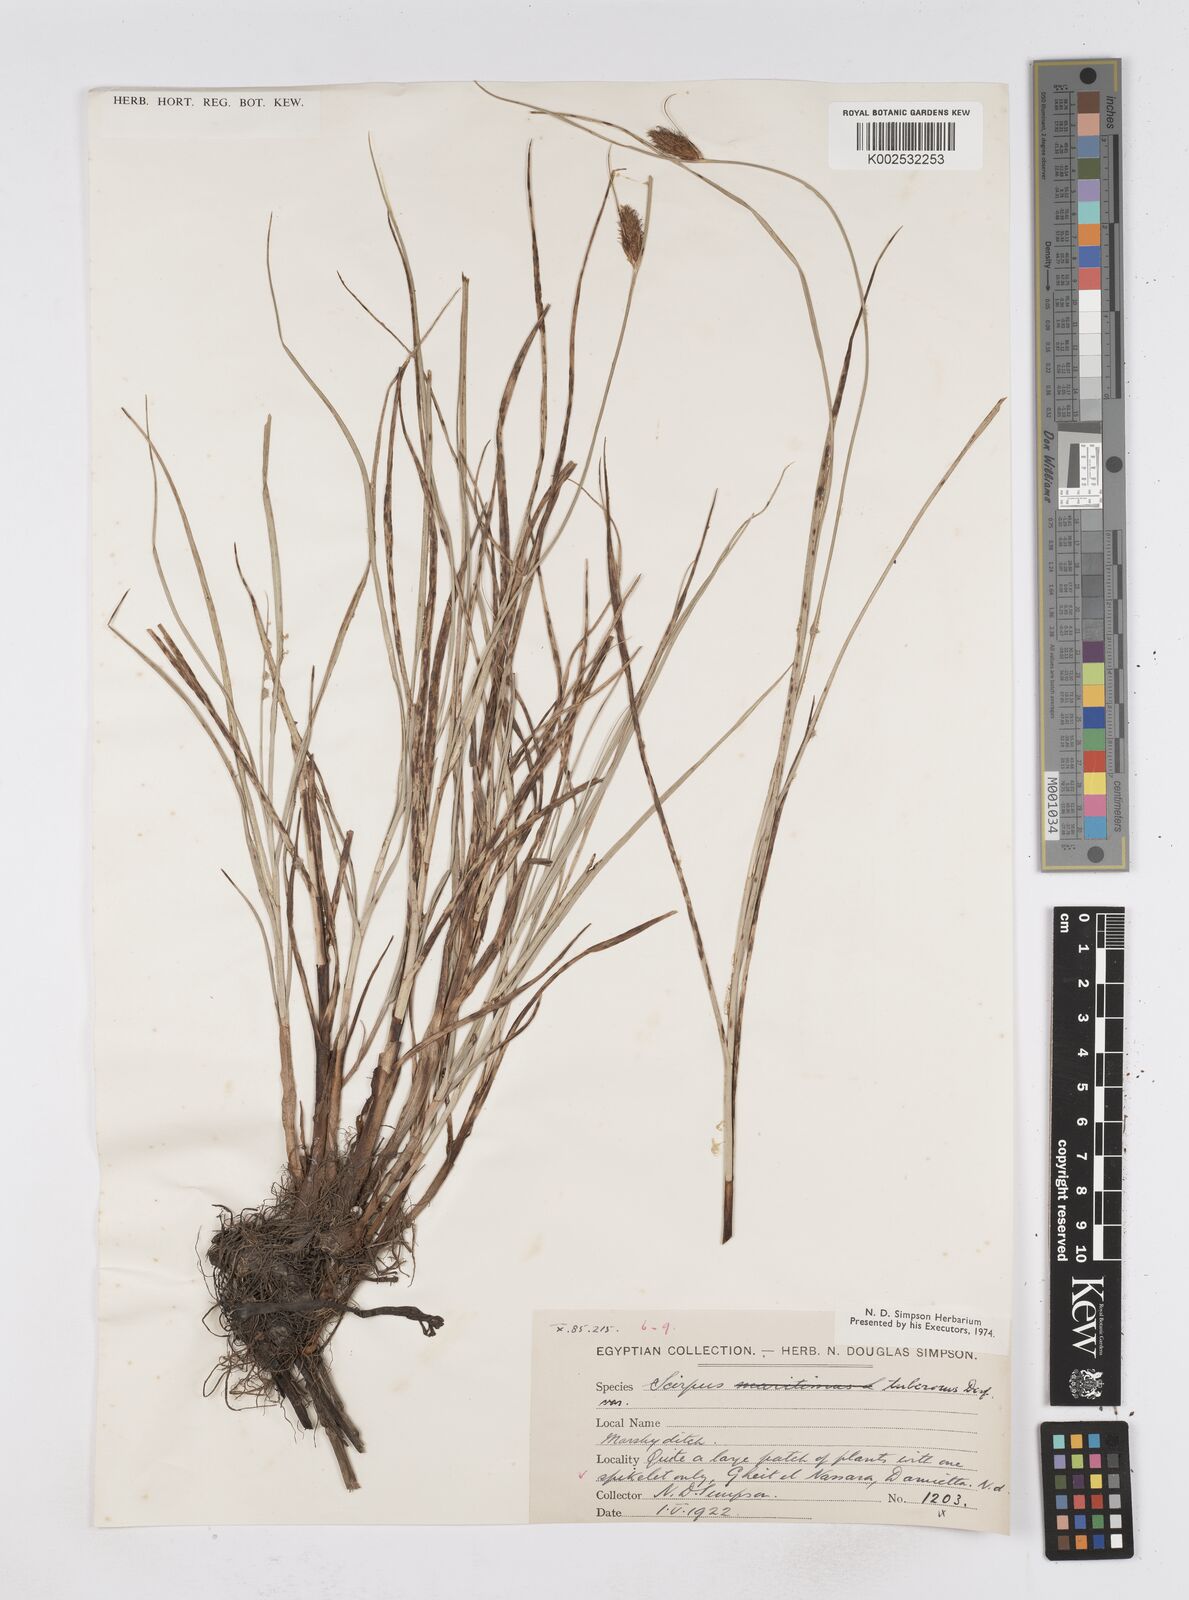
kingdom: Plantae
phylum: Tracheophyta
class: Liliopsida
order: Poales
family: Cyperaceae
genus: Bolboschoenus
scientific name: Bolboschoenus maritimus
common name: Sea club-rush
